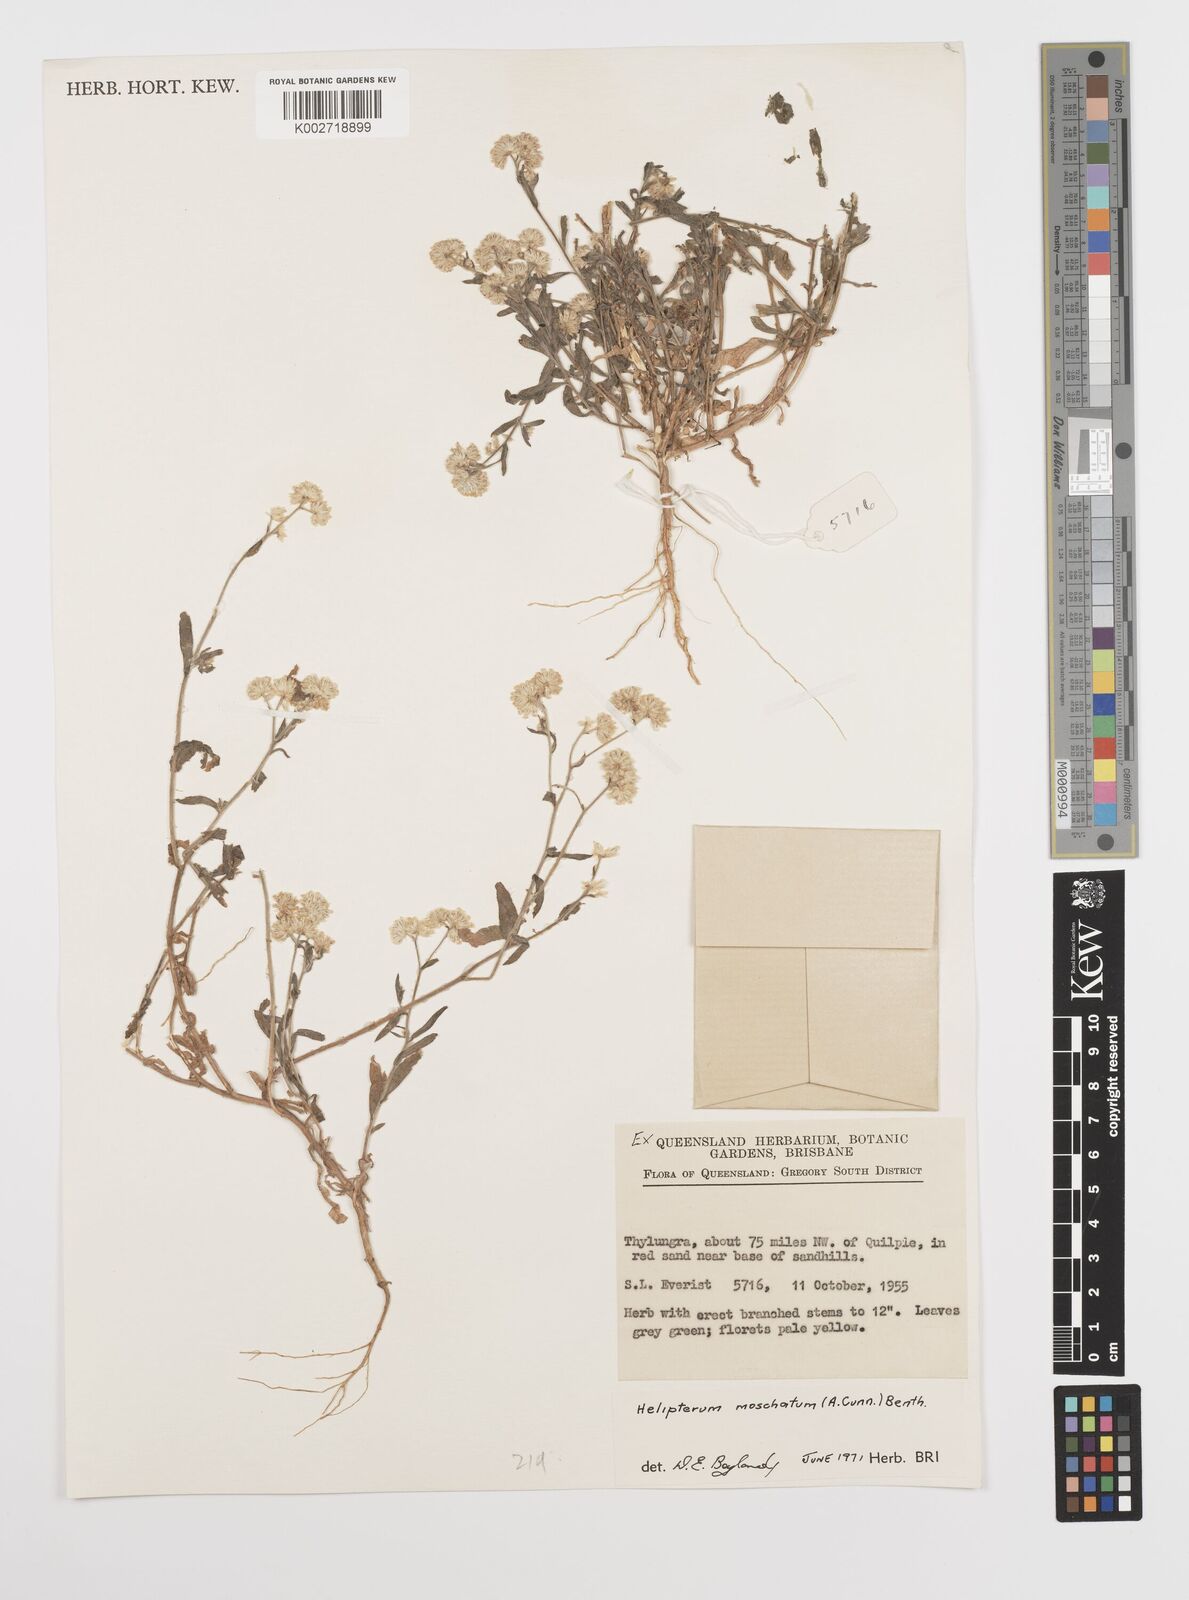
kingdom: Plantae
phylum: Tracheophyta
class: Magnoliopsida
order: Asterales
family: Asteraceae
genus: Rhodanthe
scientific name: Rhodanthe moschata
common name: Musk sunray
